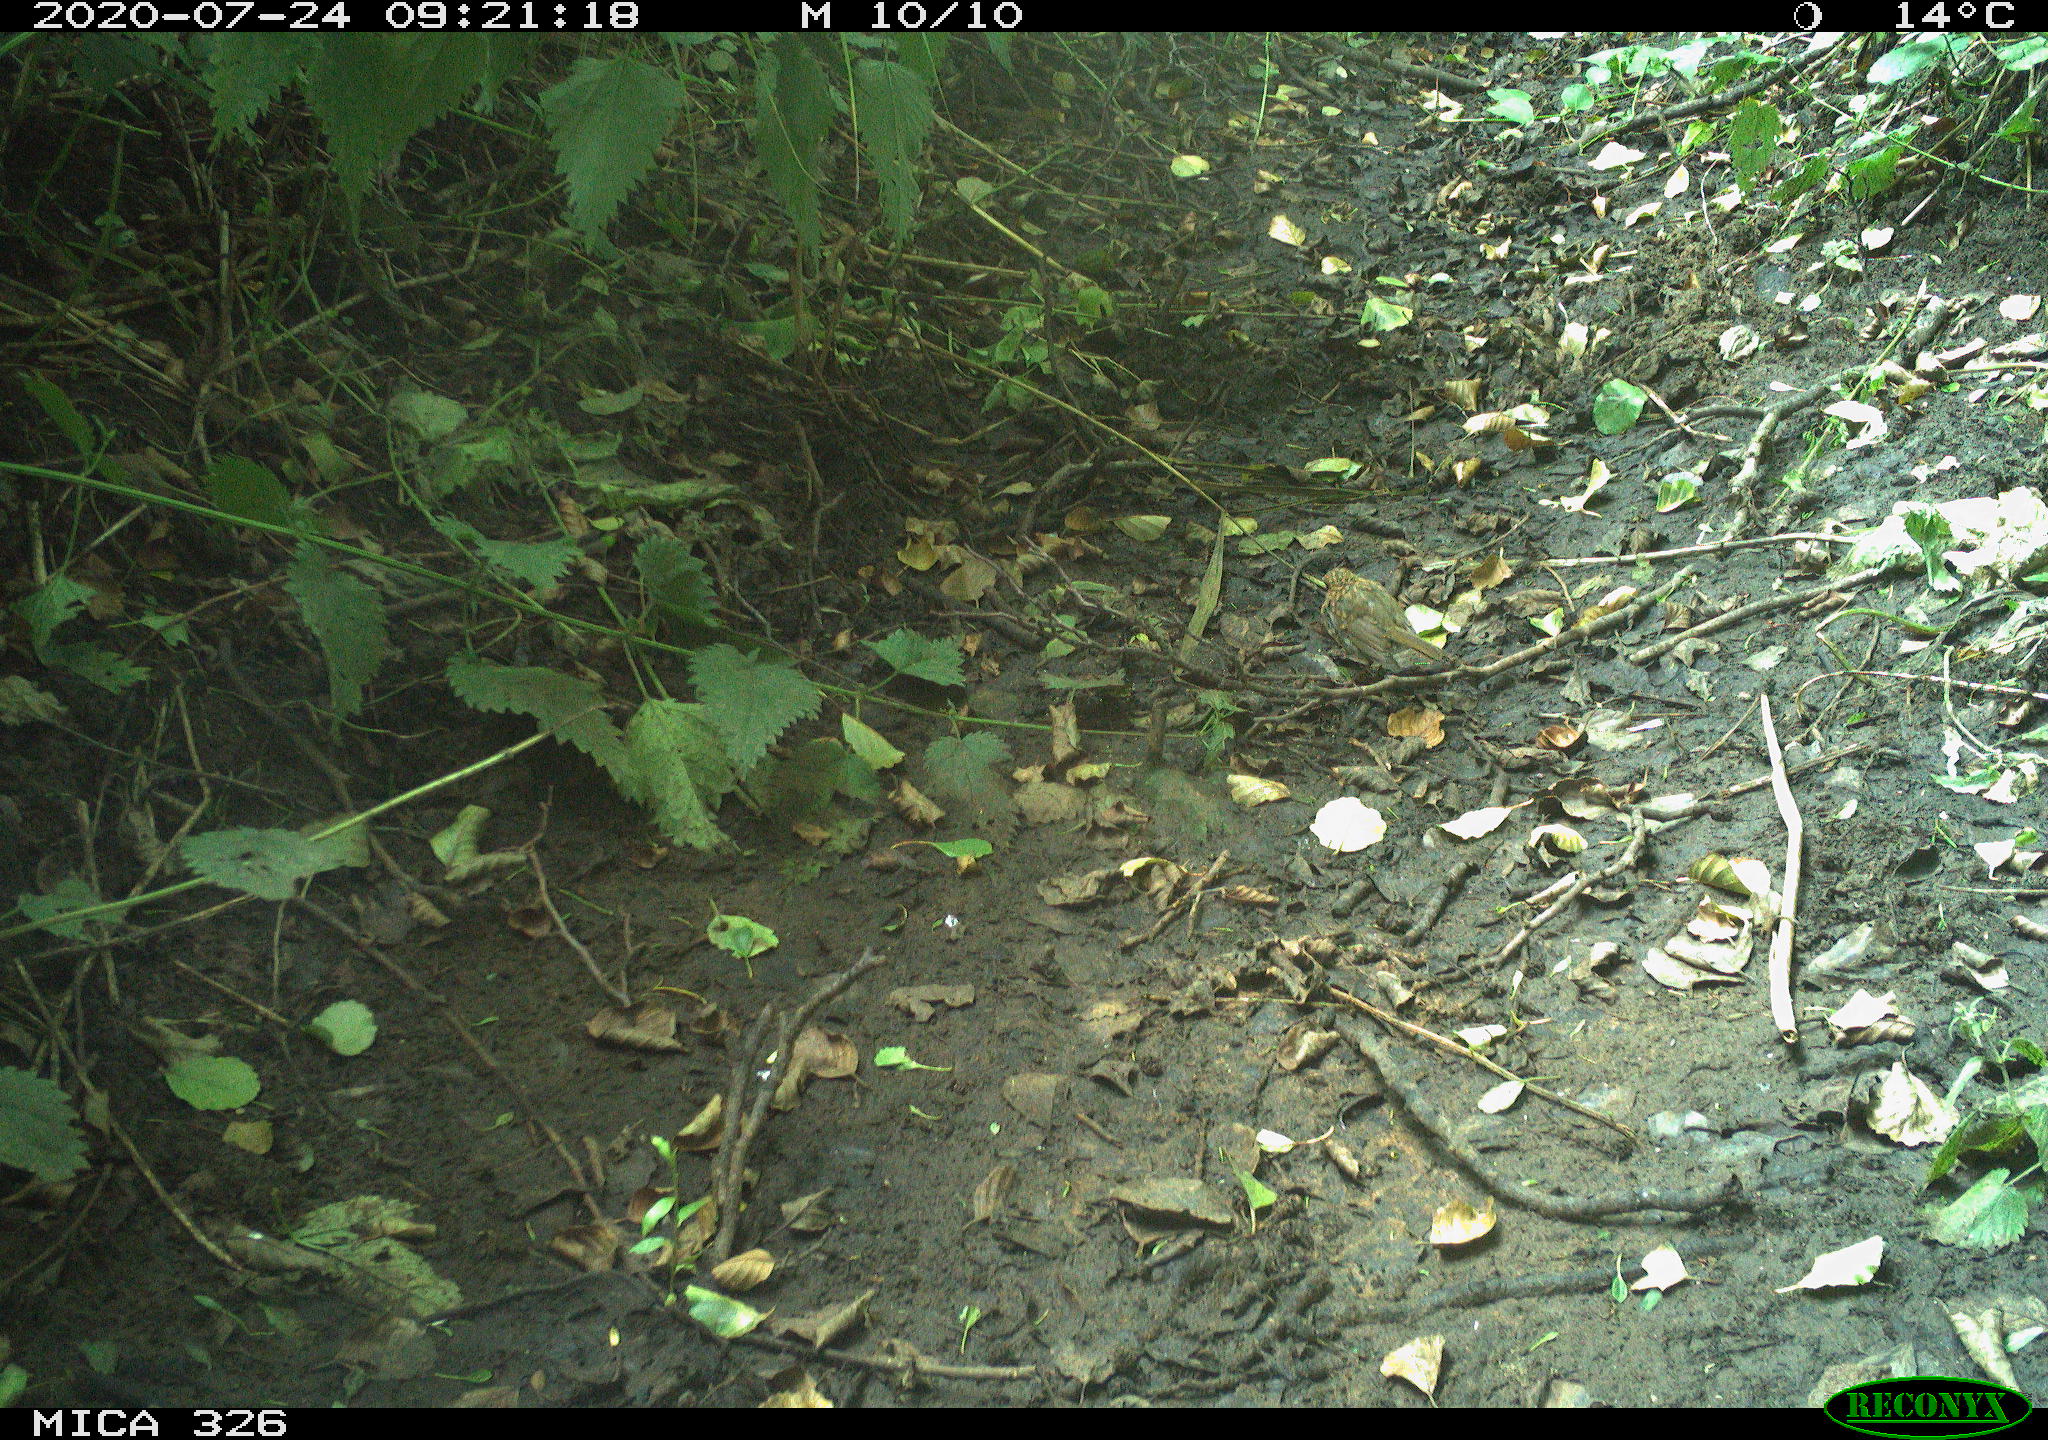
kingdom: Animalia
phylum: Chordata
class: Aves
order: Passeriformes
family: Muscicapidae
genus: Erithacus
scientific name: Erithacus rubecula
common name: European robin
